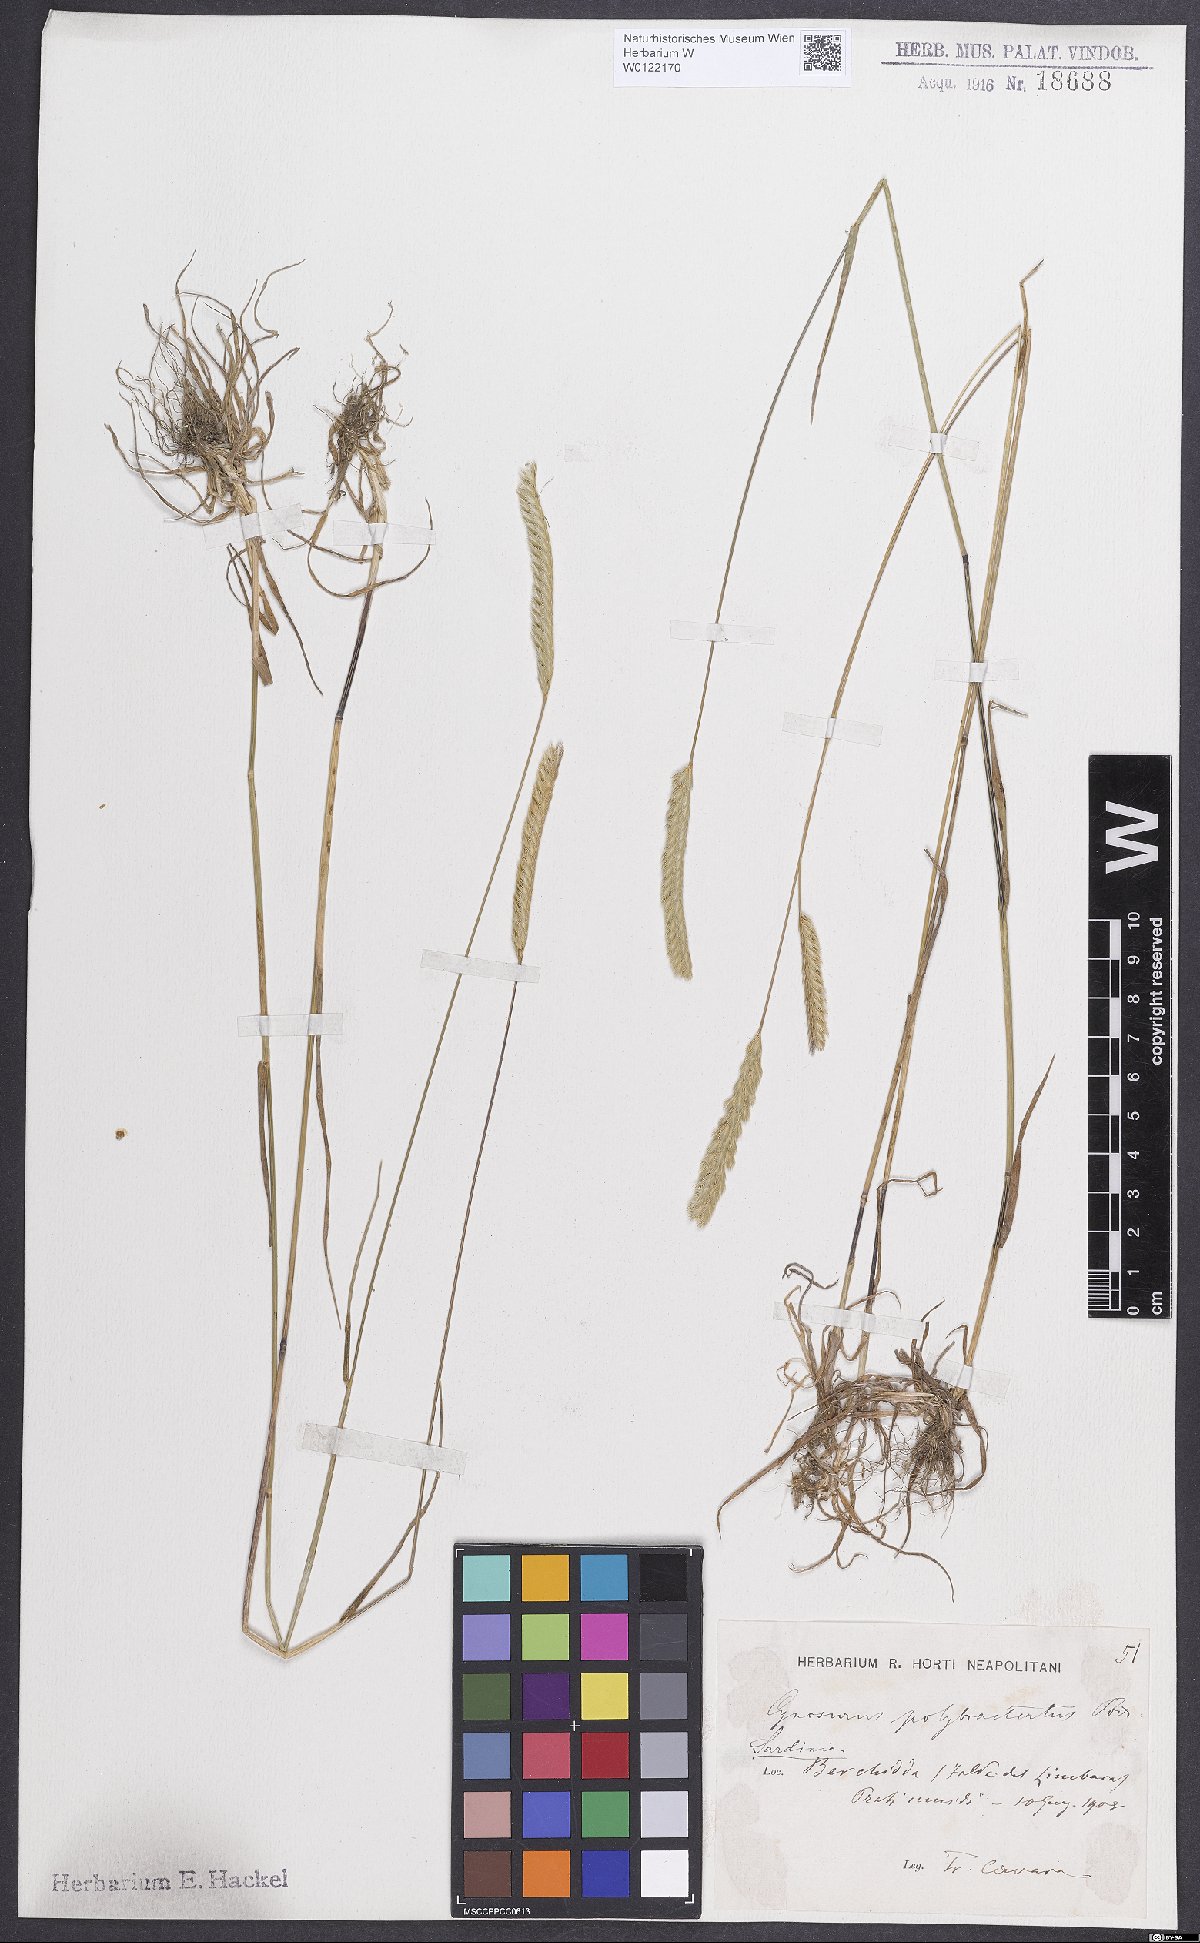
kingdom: Plantae
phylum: Tracheophyta
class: Liliopsida
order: Poales
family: Poaceae
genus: Cynosurus
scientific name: Cynosurus polybracteatus
